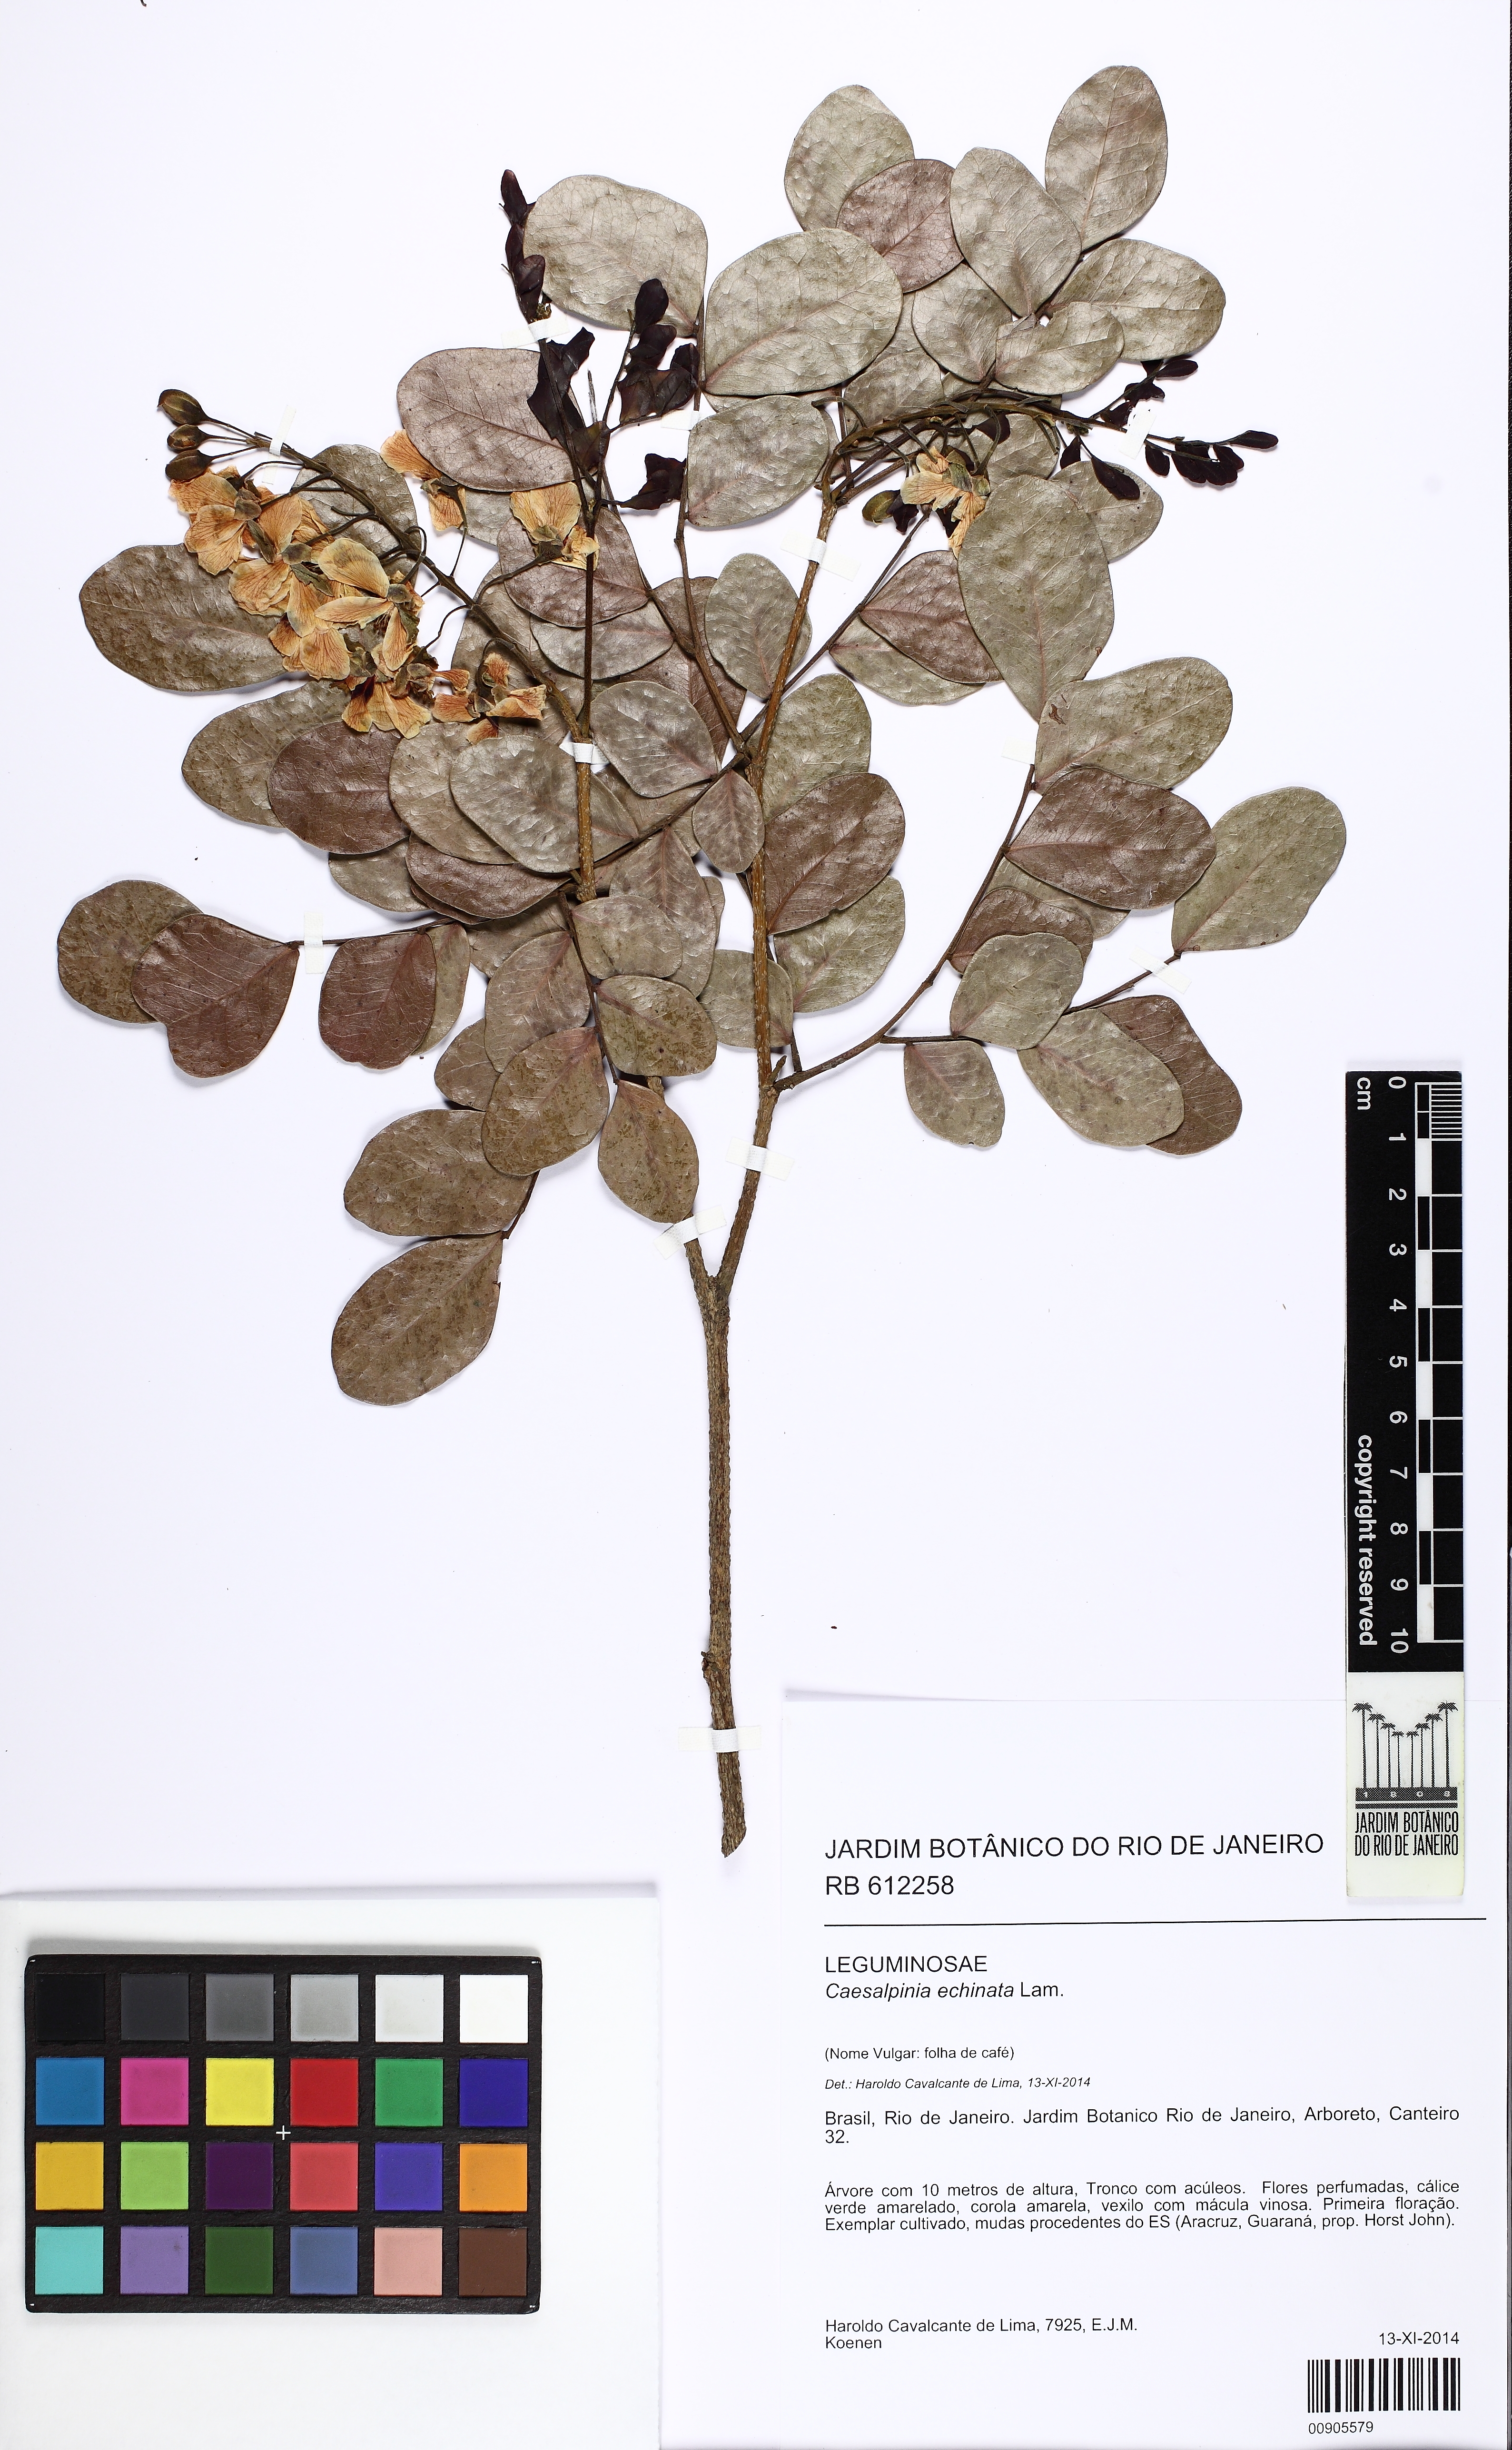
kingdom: Plantae
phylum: Tracheophyta
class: Magnoliopsida
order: Fabales
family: Fabaceae
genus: Paubrasilia
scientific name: Paubrasilia echinata
